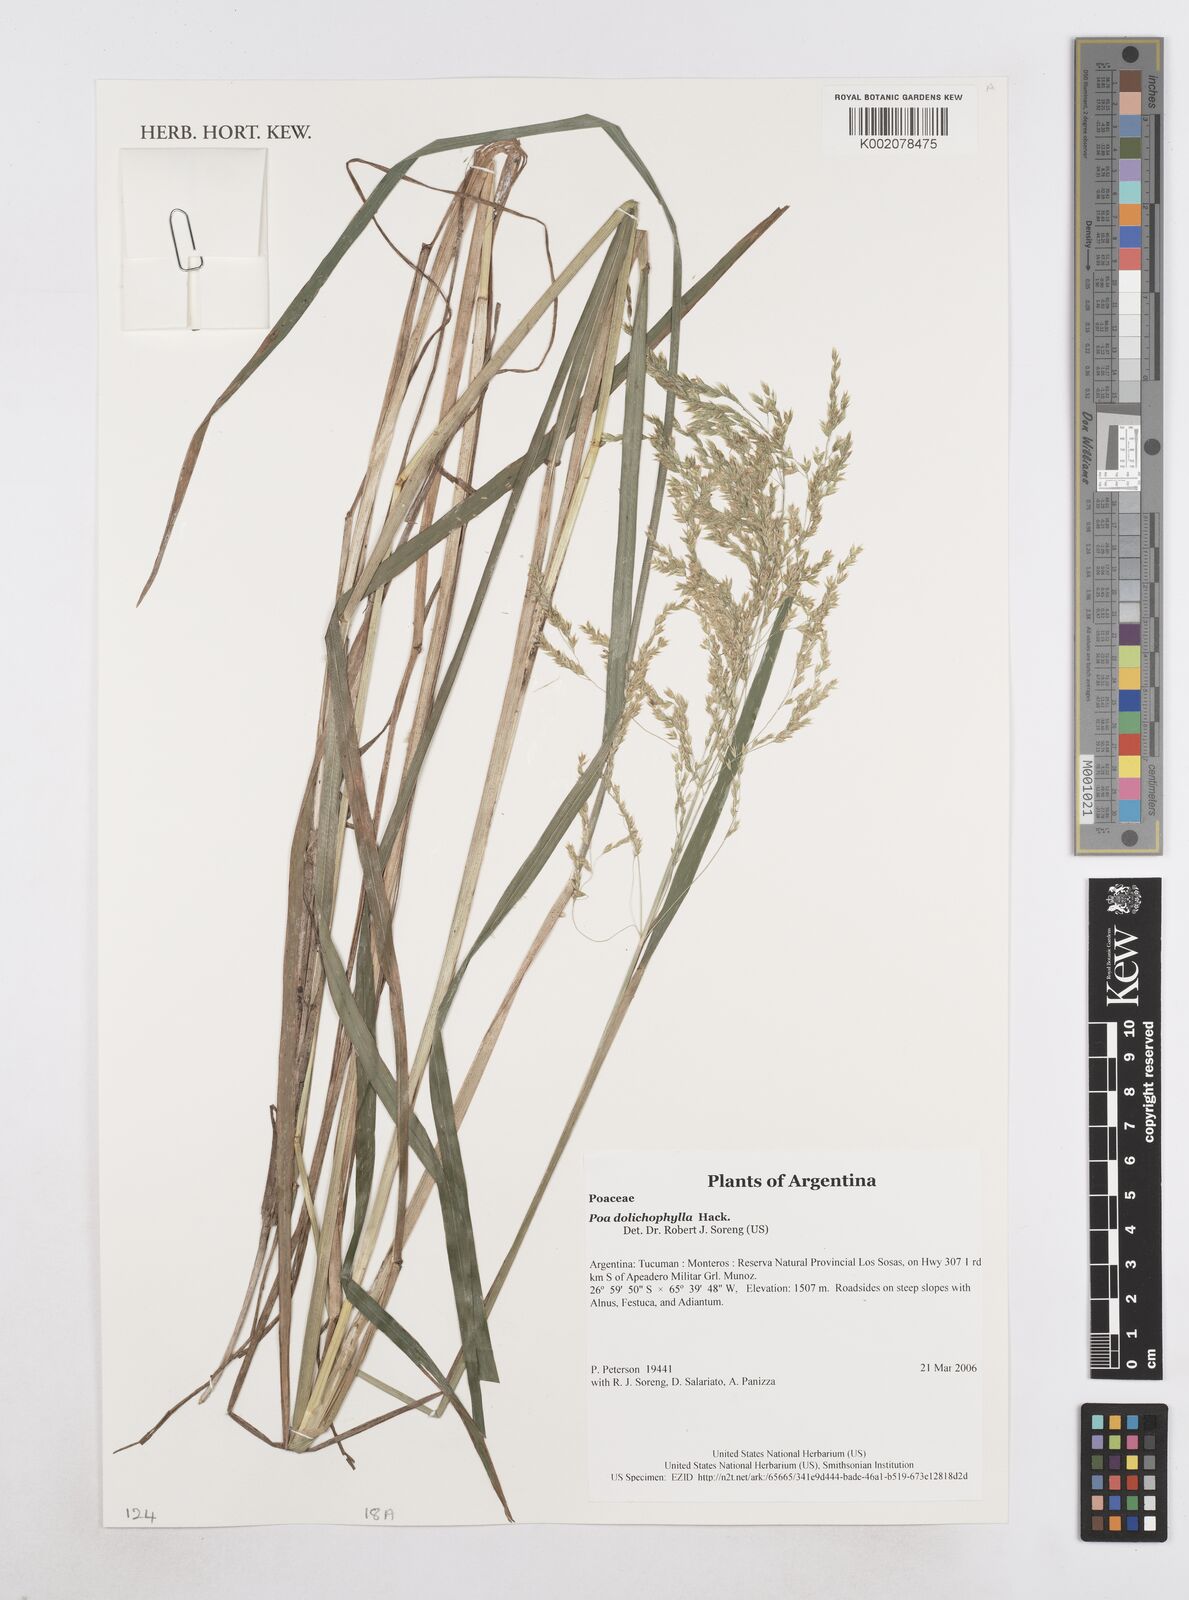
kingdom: Plantae
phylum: Tracheophyta
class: Liliopsida
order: Poales
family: Poaceae
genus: Poa
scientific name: Poa dolichophylla
